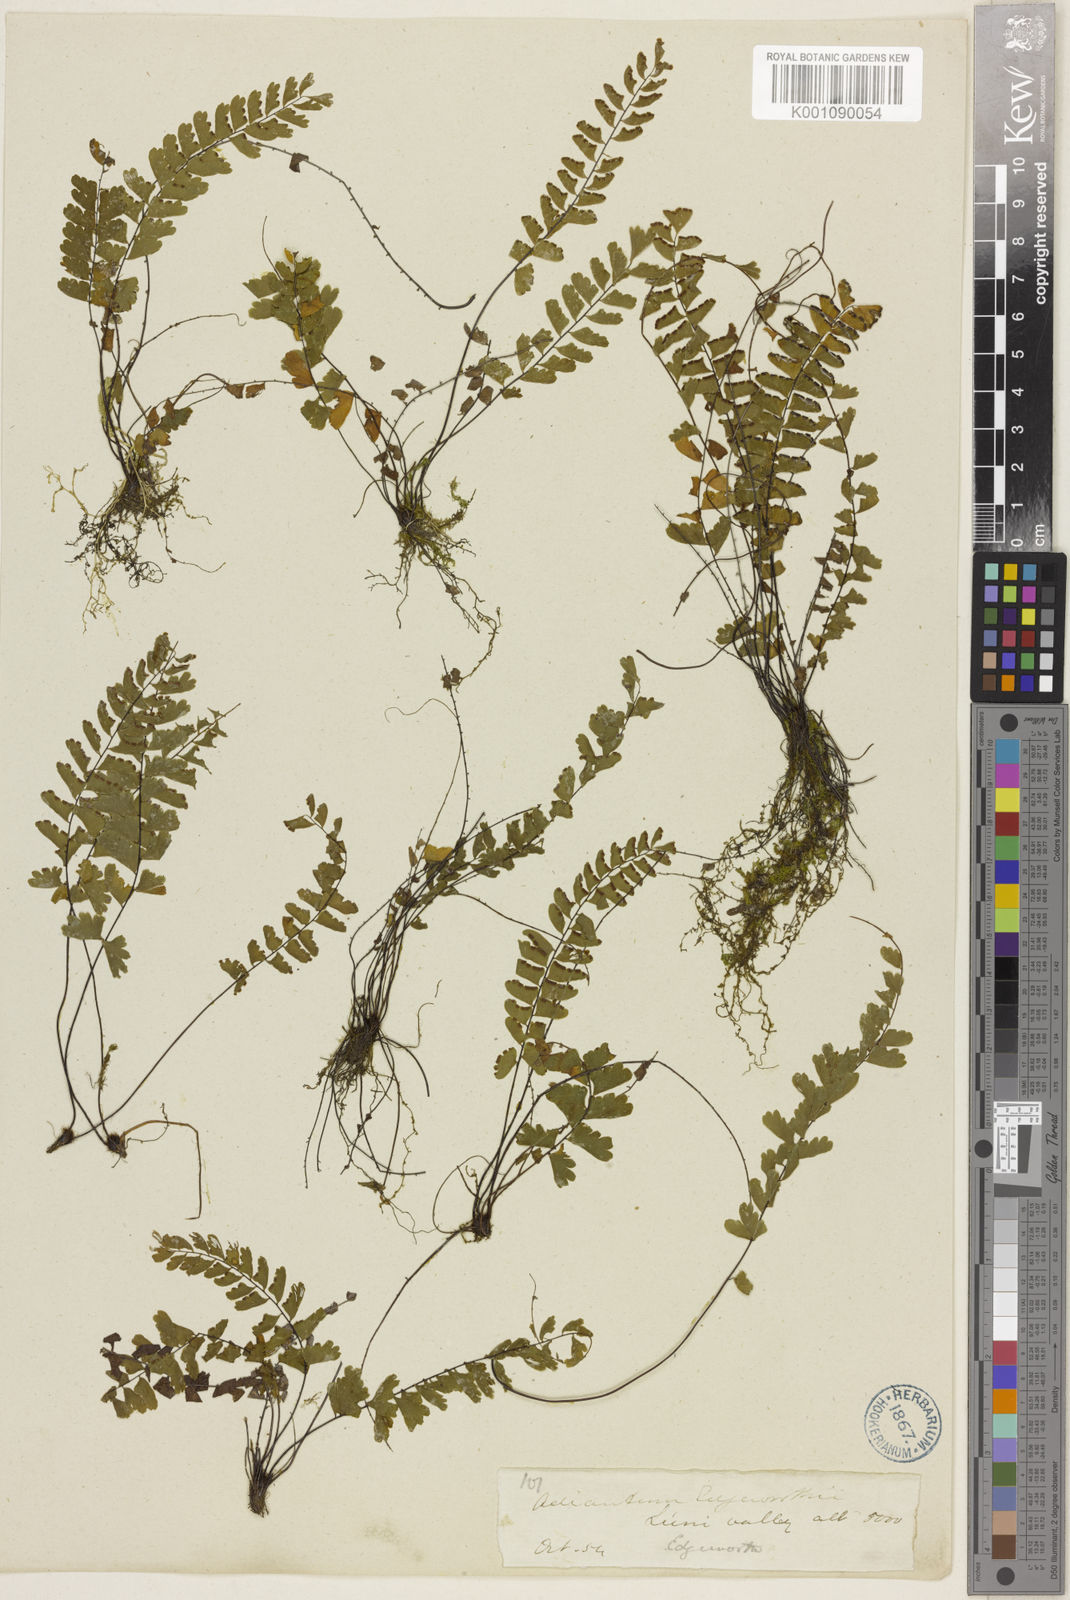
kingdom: Plantae
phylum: Tracheophyta
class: Polypodiopsida
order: Polypodiales
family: Pteridaceae
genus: Adiantum
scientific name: Adiantum edgeworthii
